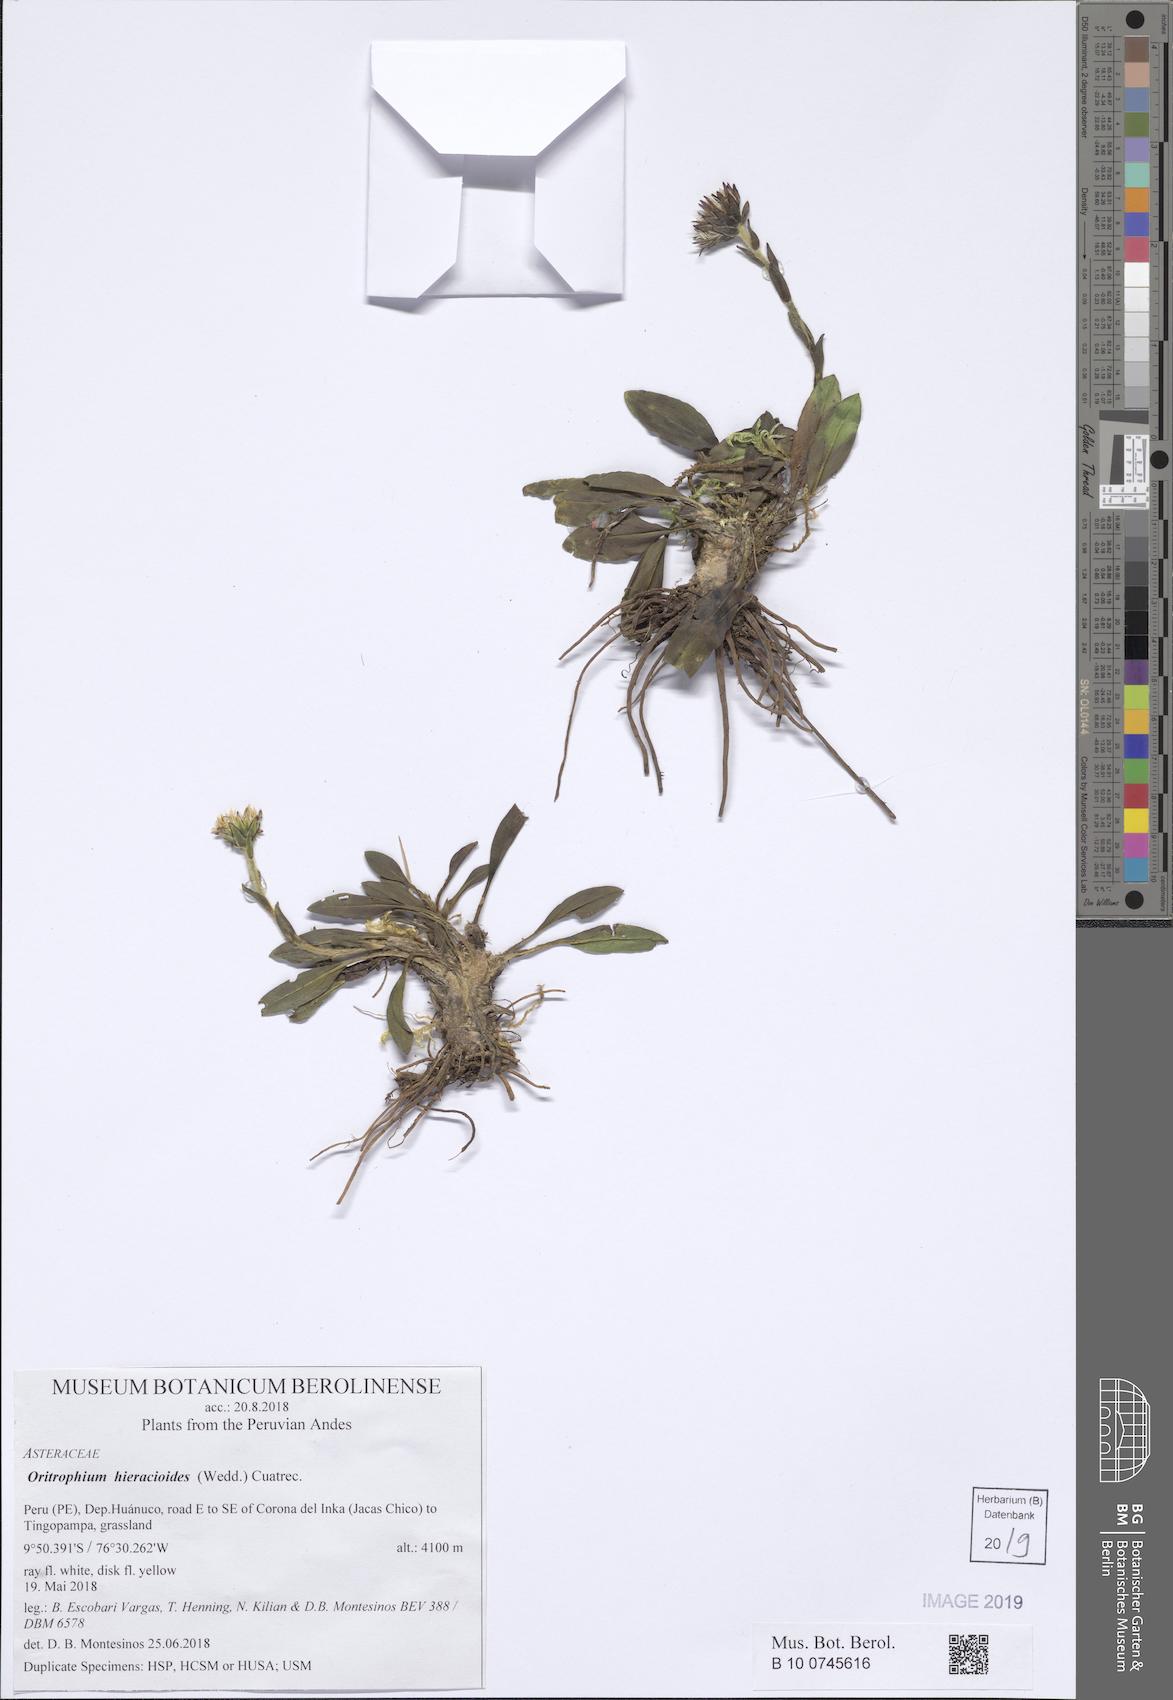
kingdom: Plantae
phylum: Tracheophyta
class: Magnoliopsida
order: Asterales
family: Asteraceae
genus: Oritrophium
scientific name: Oritrophium limnophilum
